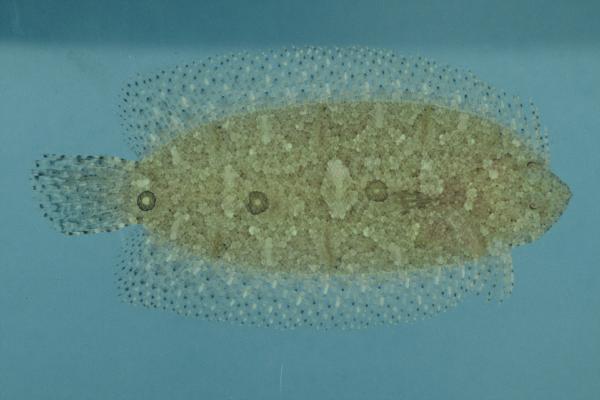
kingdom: Animalia
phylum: Chordata
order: Pleuronectiformes
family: Samaridae
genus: Samariscus
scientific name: Samariscus triocellatus
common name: Three-spot righteye flounder
